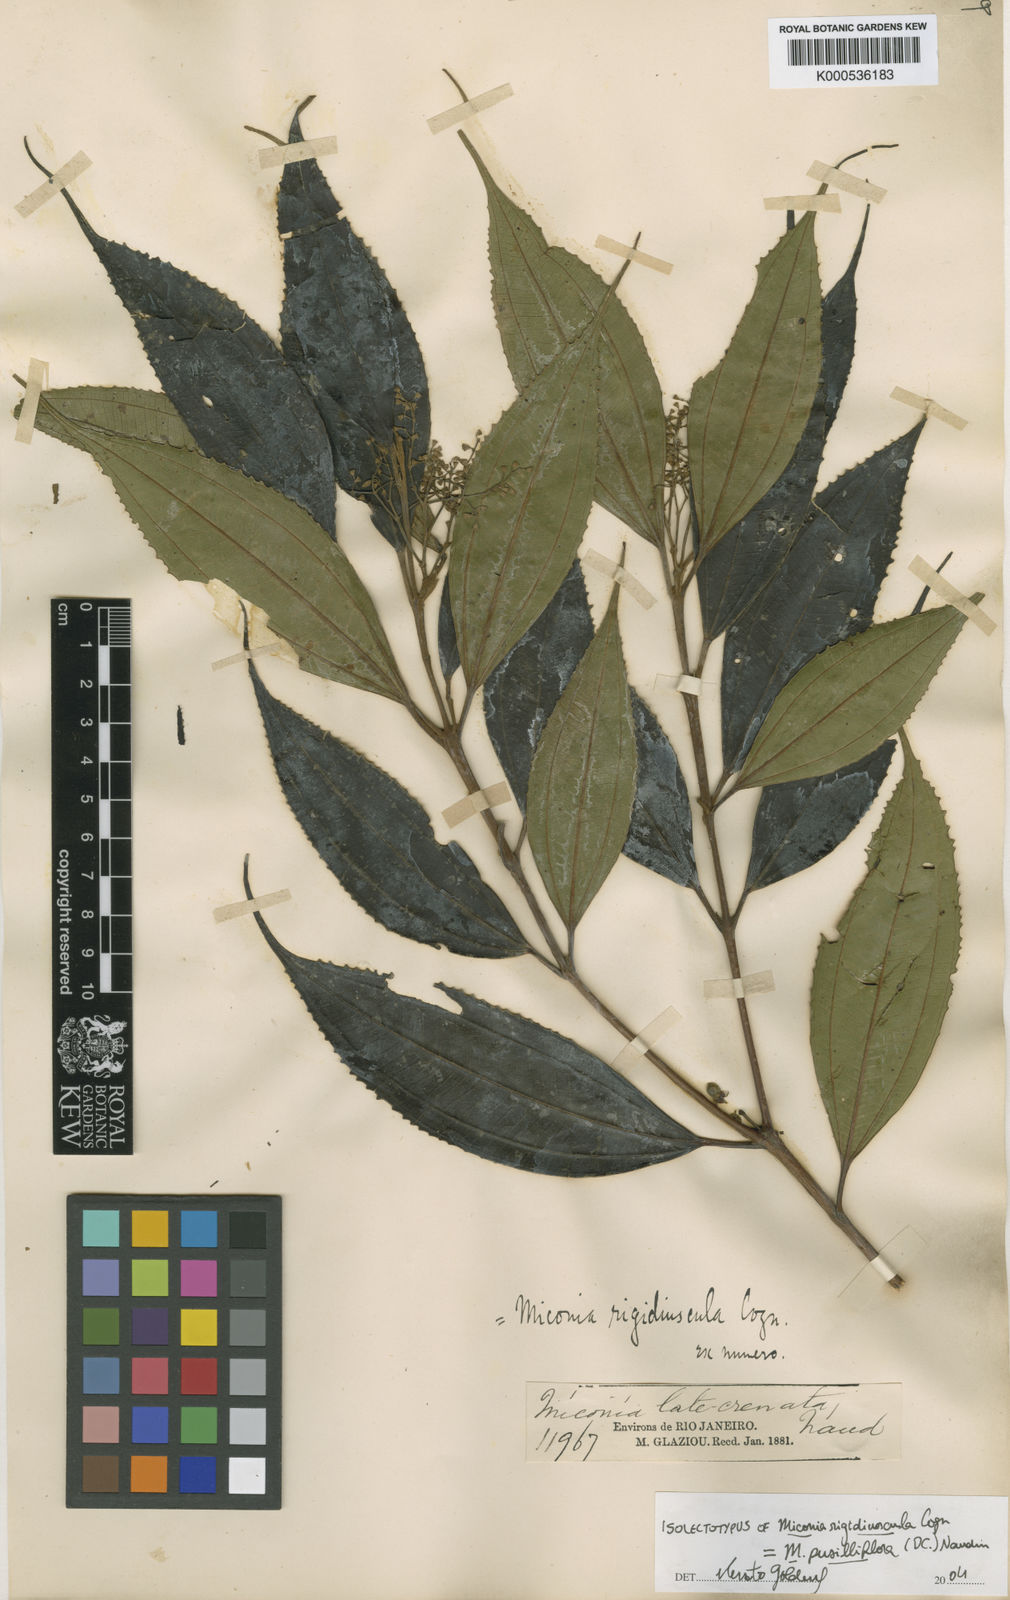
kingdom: Plantae
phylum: Tracheophyta
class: Magnoliopsida
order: Myrtales
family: Melastomataceae
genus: Miconia
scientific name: Miconia pusilliflora
